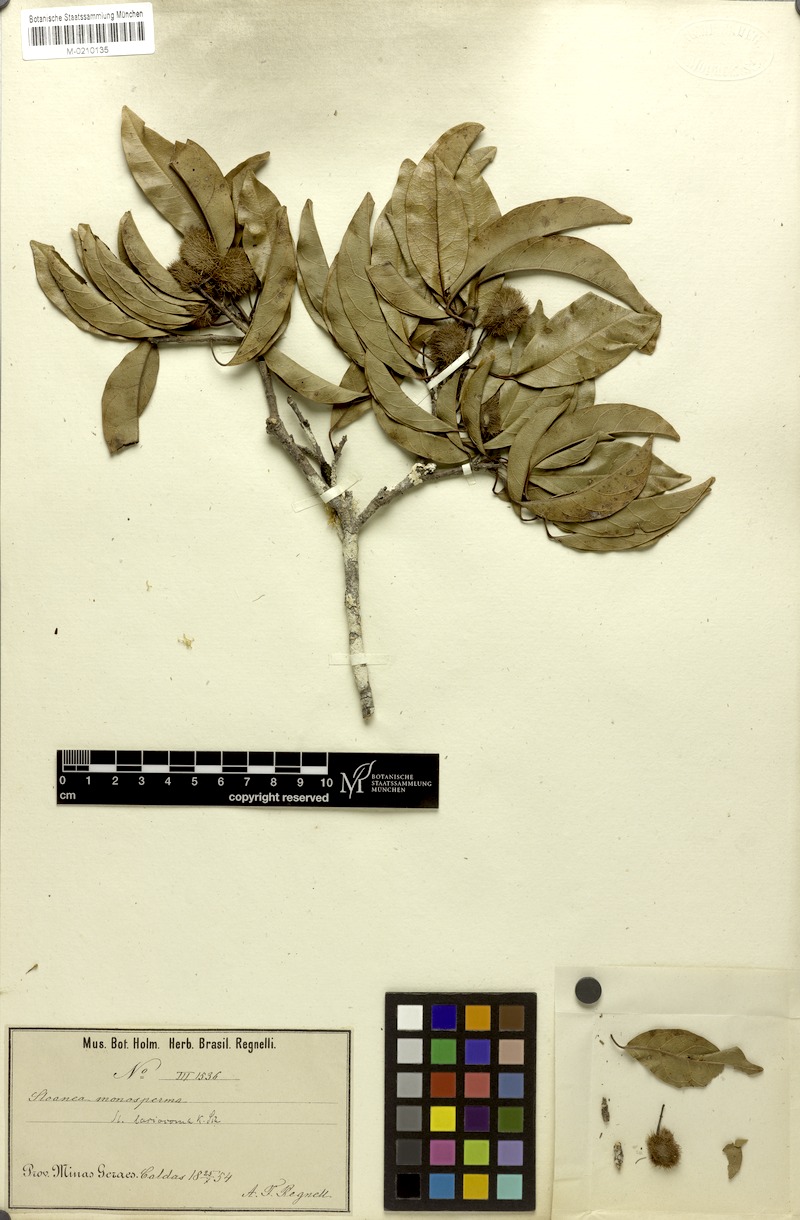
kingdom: Plantae
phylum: Tracheophyta
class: Magnoliopsida
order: Oxalidales
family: Elaeocarpaceae
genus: Sloanea
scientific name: Sloanea hirsuta
